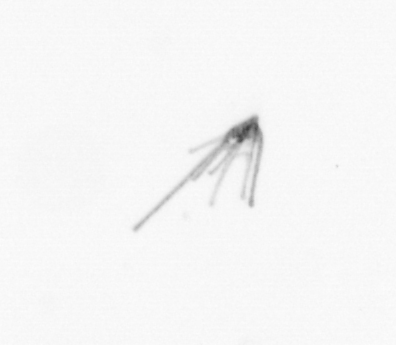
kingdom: Animalia
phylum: Echinodermata
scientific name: Echinodermata
